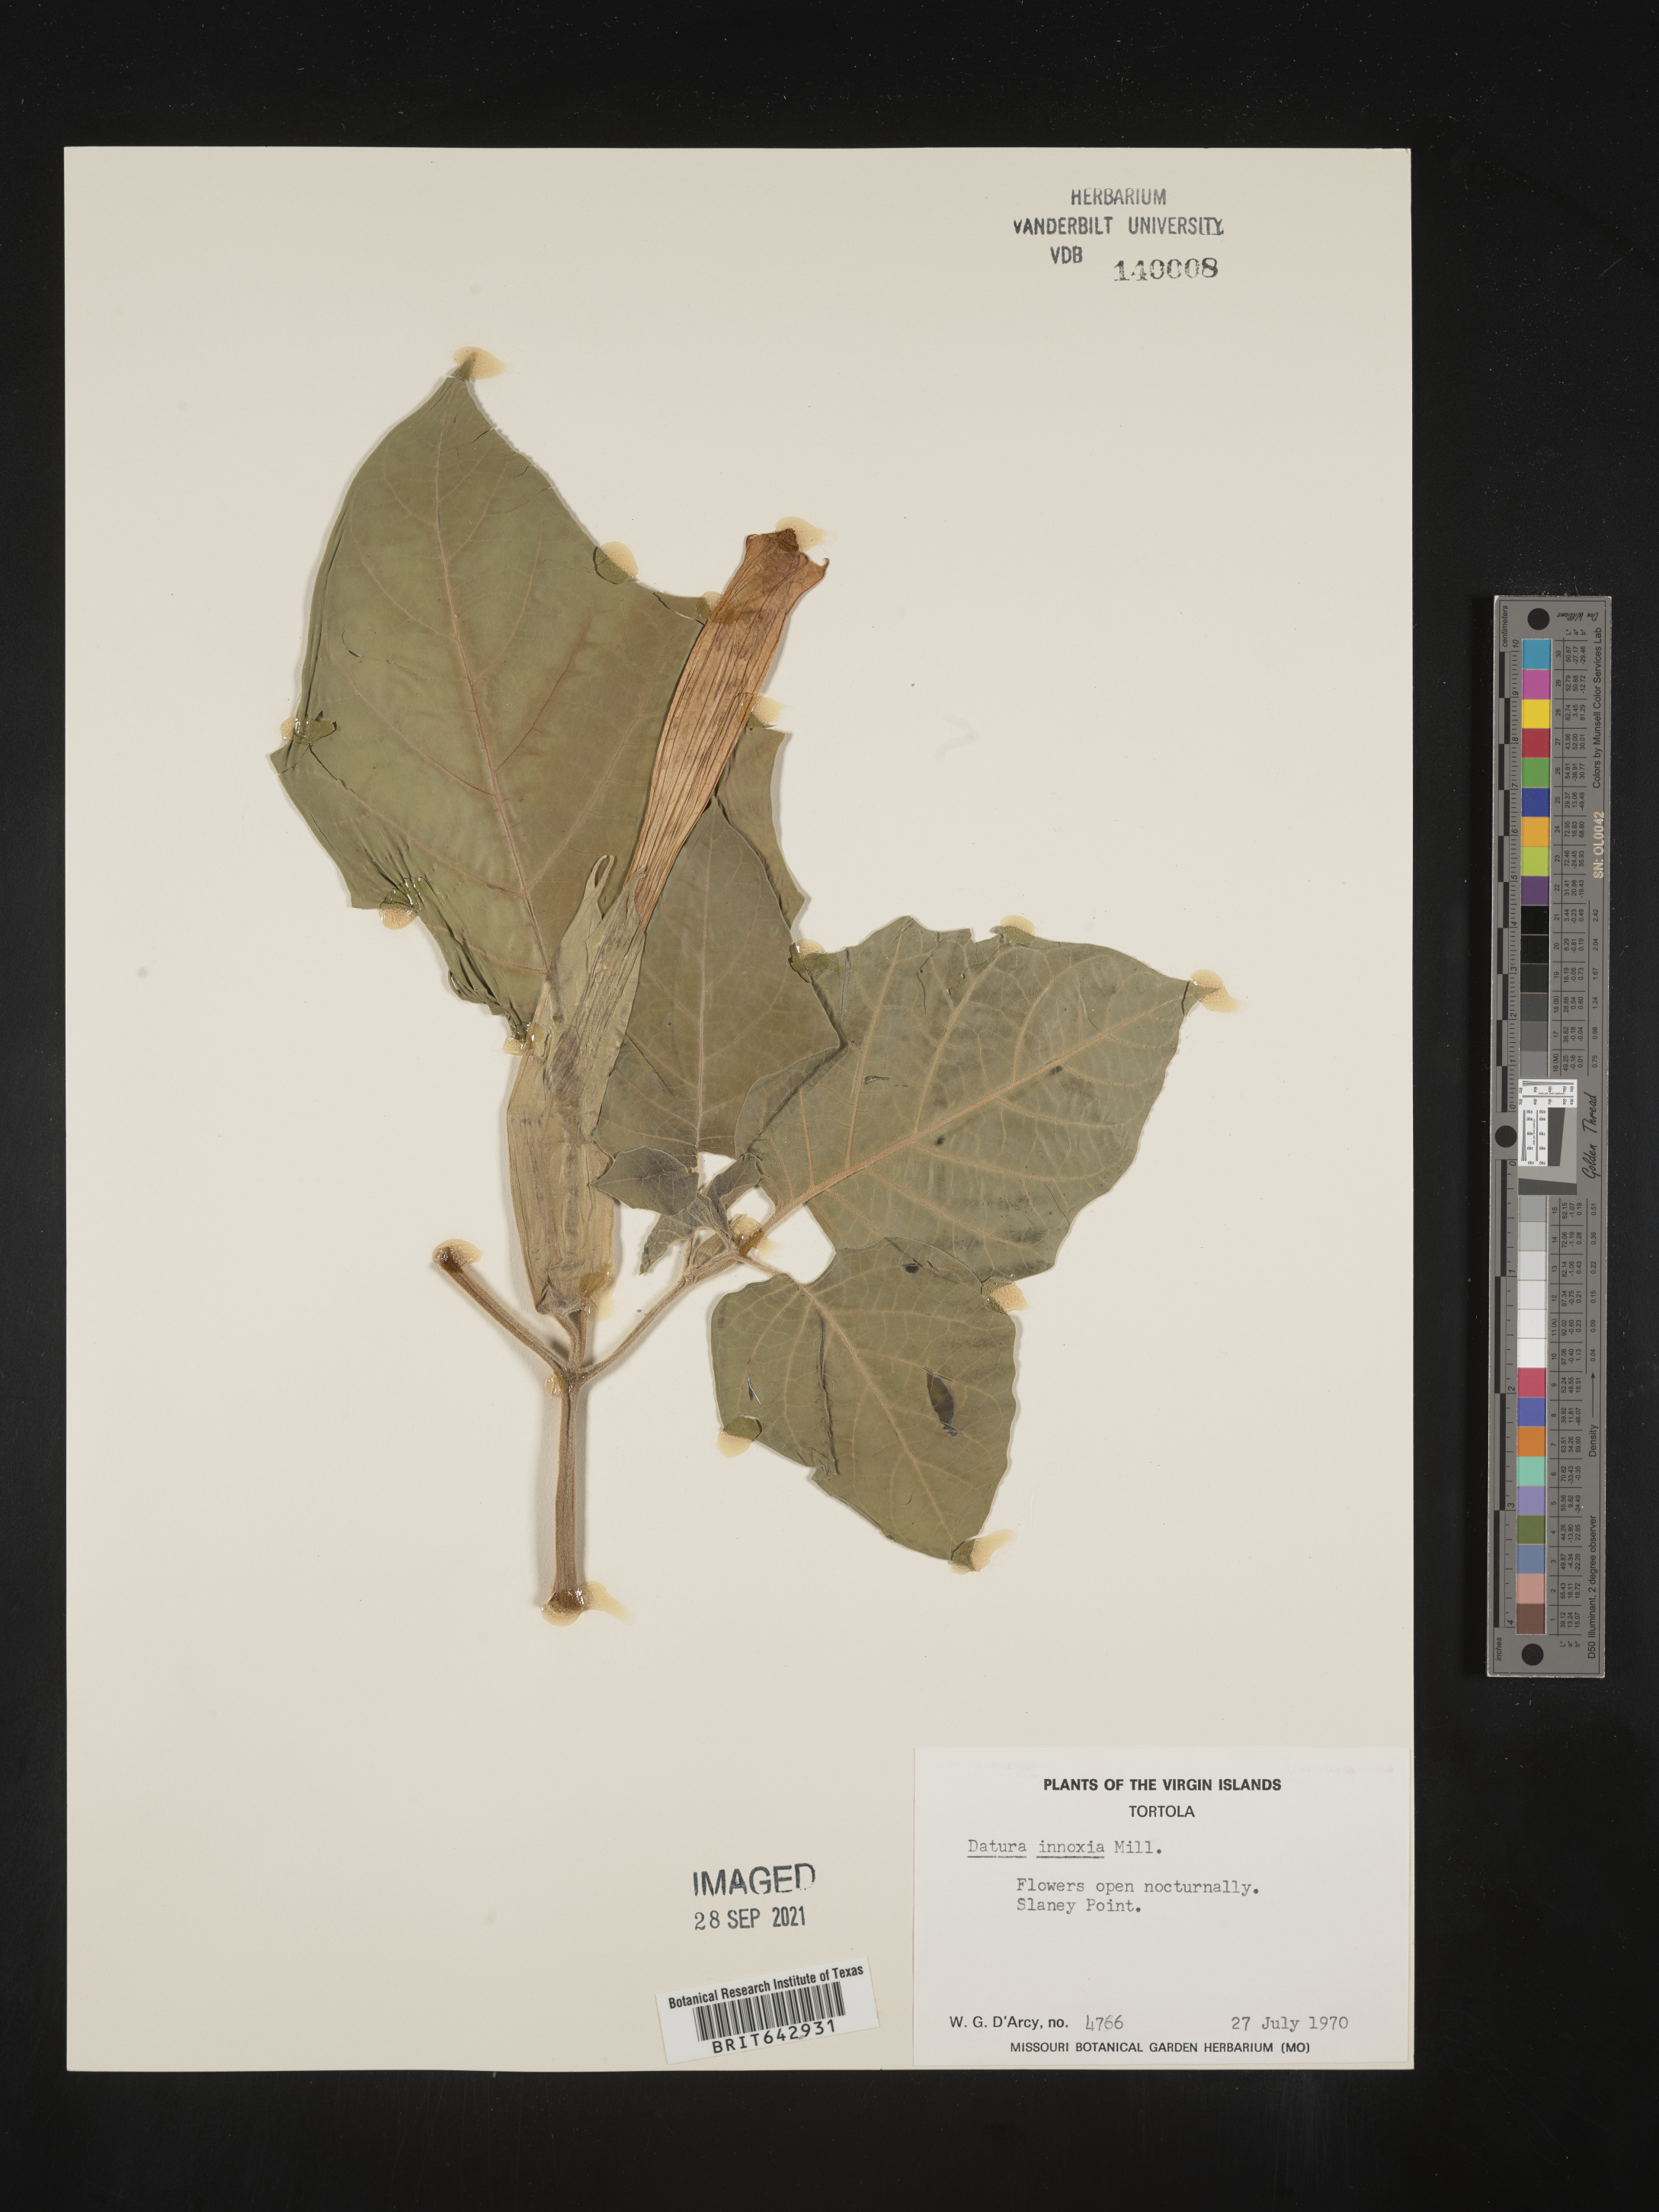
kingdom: Plantae
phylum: Tracheophyta
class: Magnoliopsida
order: Solanales
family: Solanaceae
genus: Datura
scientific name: Datura
